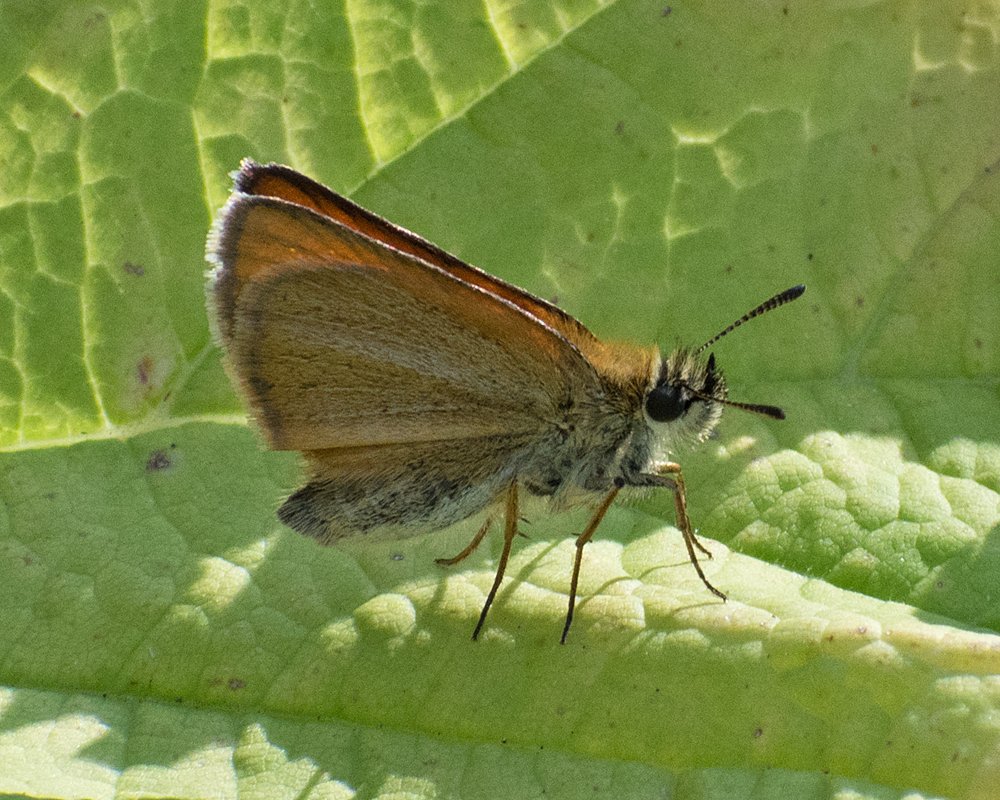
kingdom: Animalia
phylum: Arthropoda
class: Insecta
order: Lepidoptera
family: Hesperiidae
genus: Thymelicus
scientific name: Thymelicus lineola
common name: European Skipper
